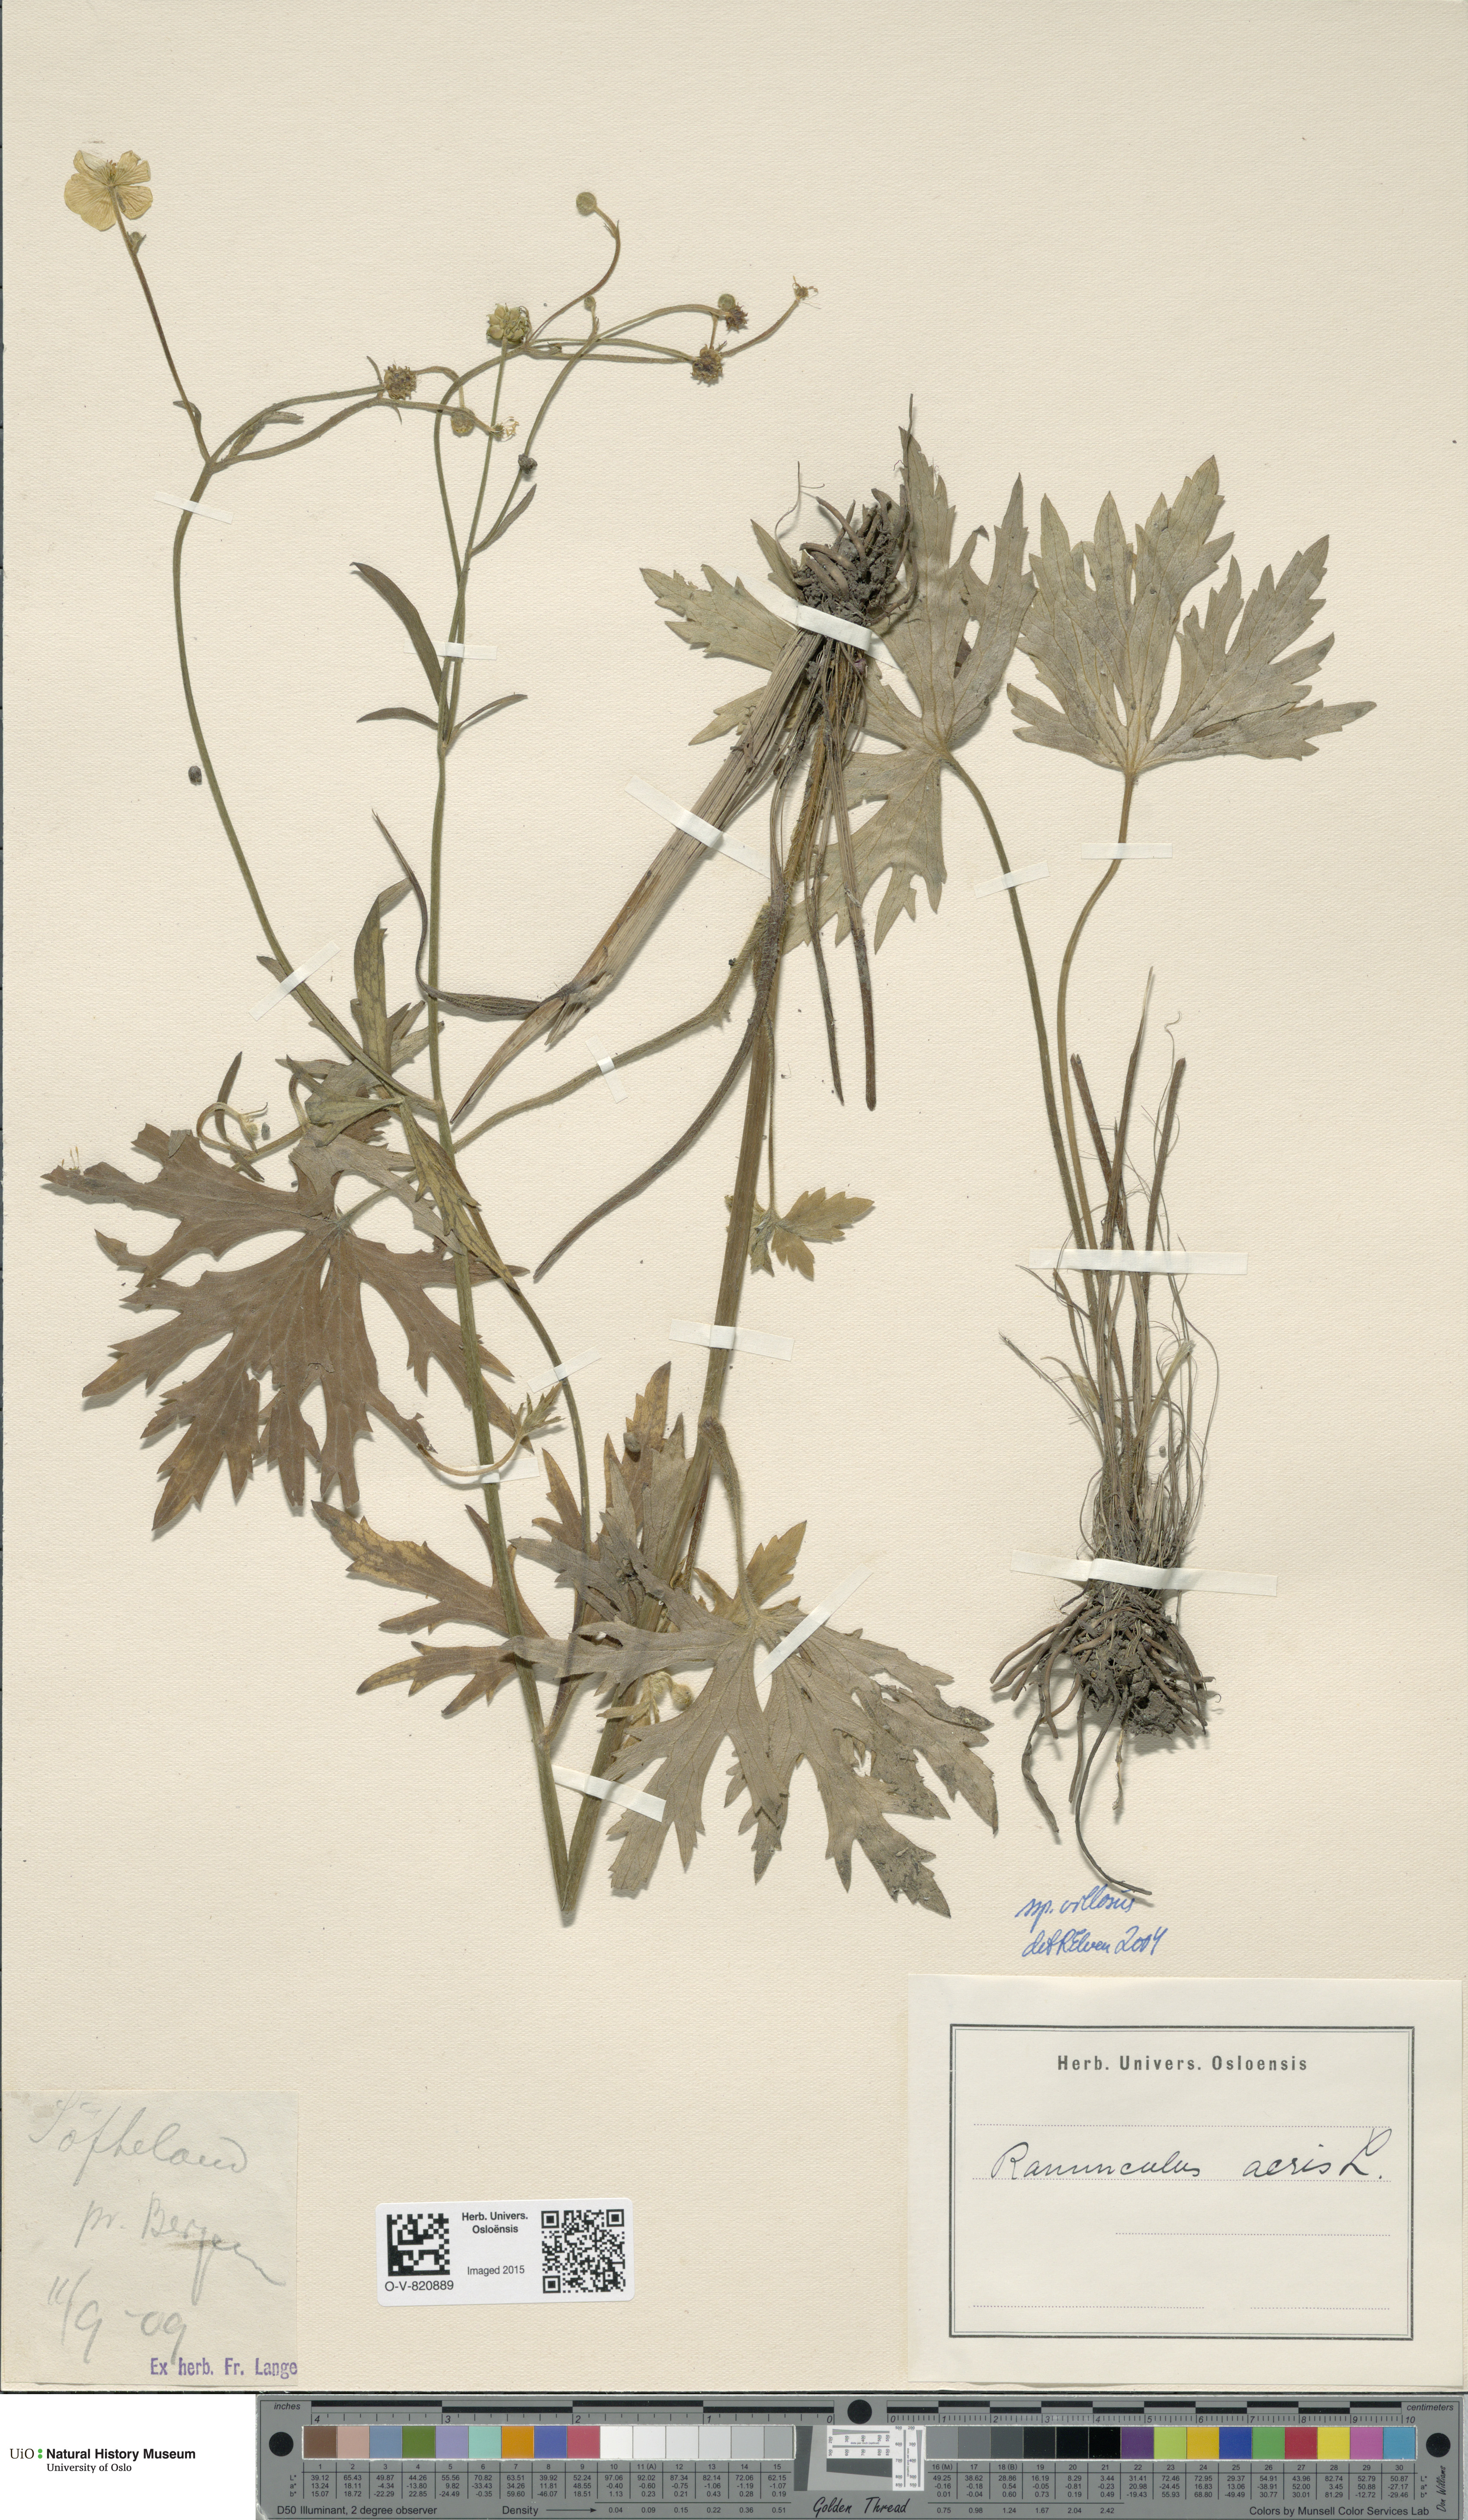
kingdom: Plantae
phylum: Tracheophyta
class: Magnoliopsida
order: Ranunculales
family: Ranunculaceae
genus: Ranunculus
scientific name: Ranunculus propinquus
